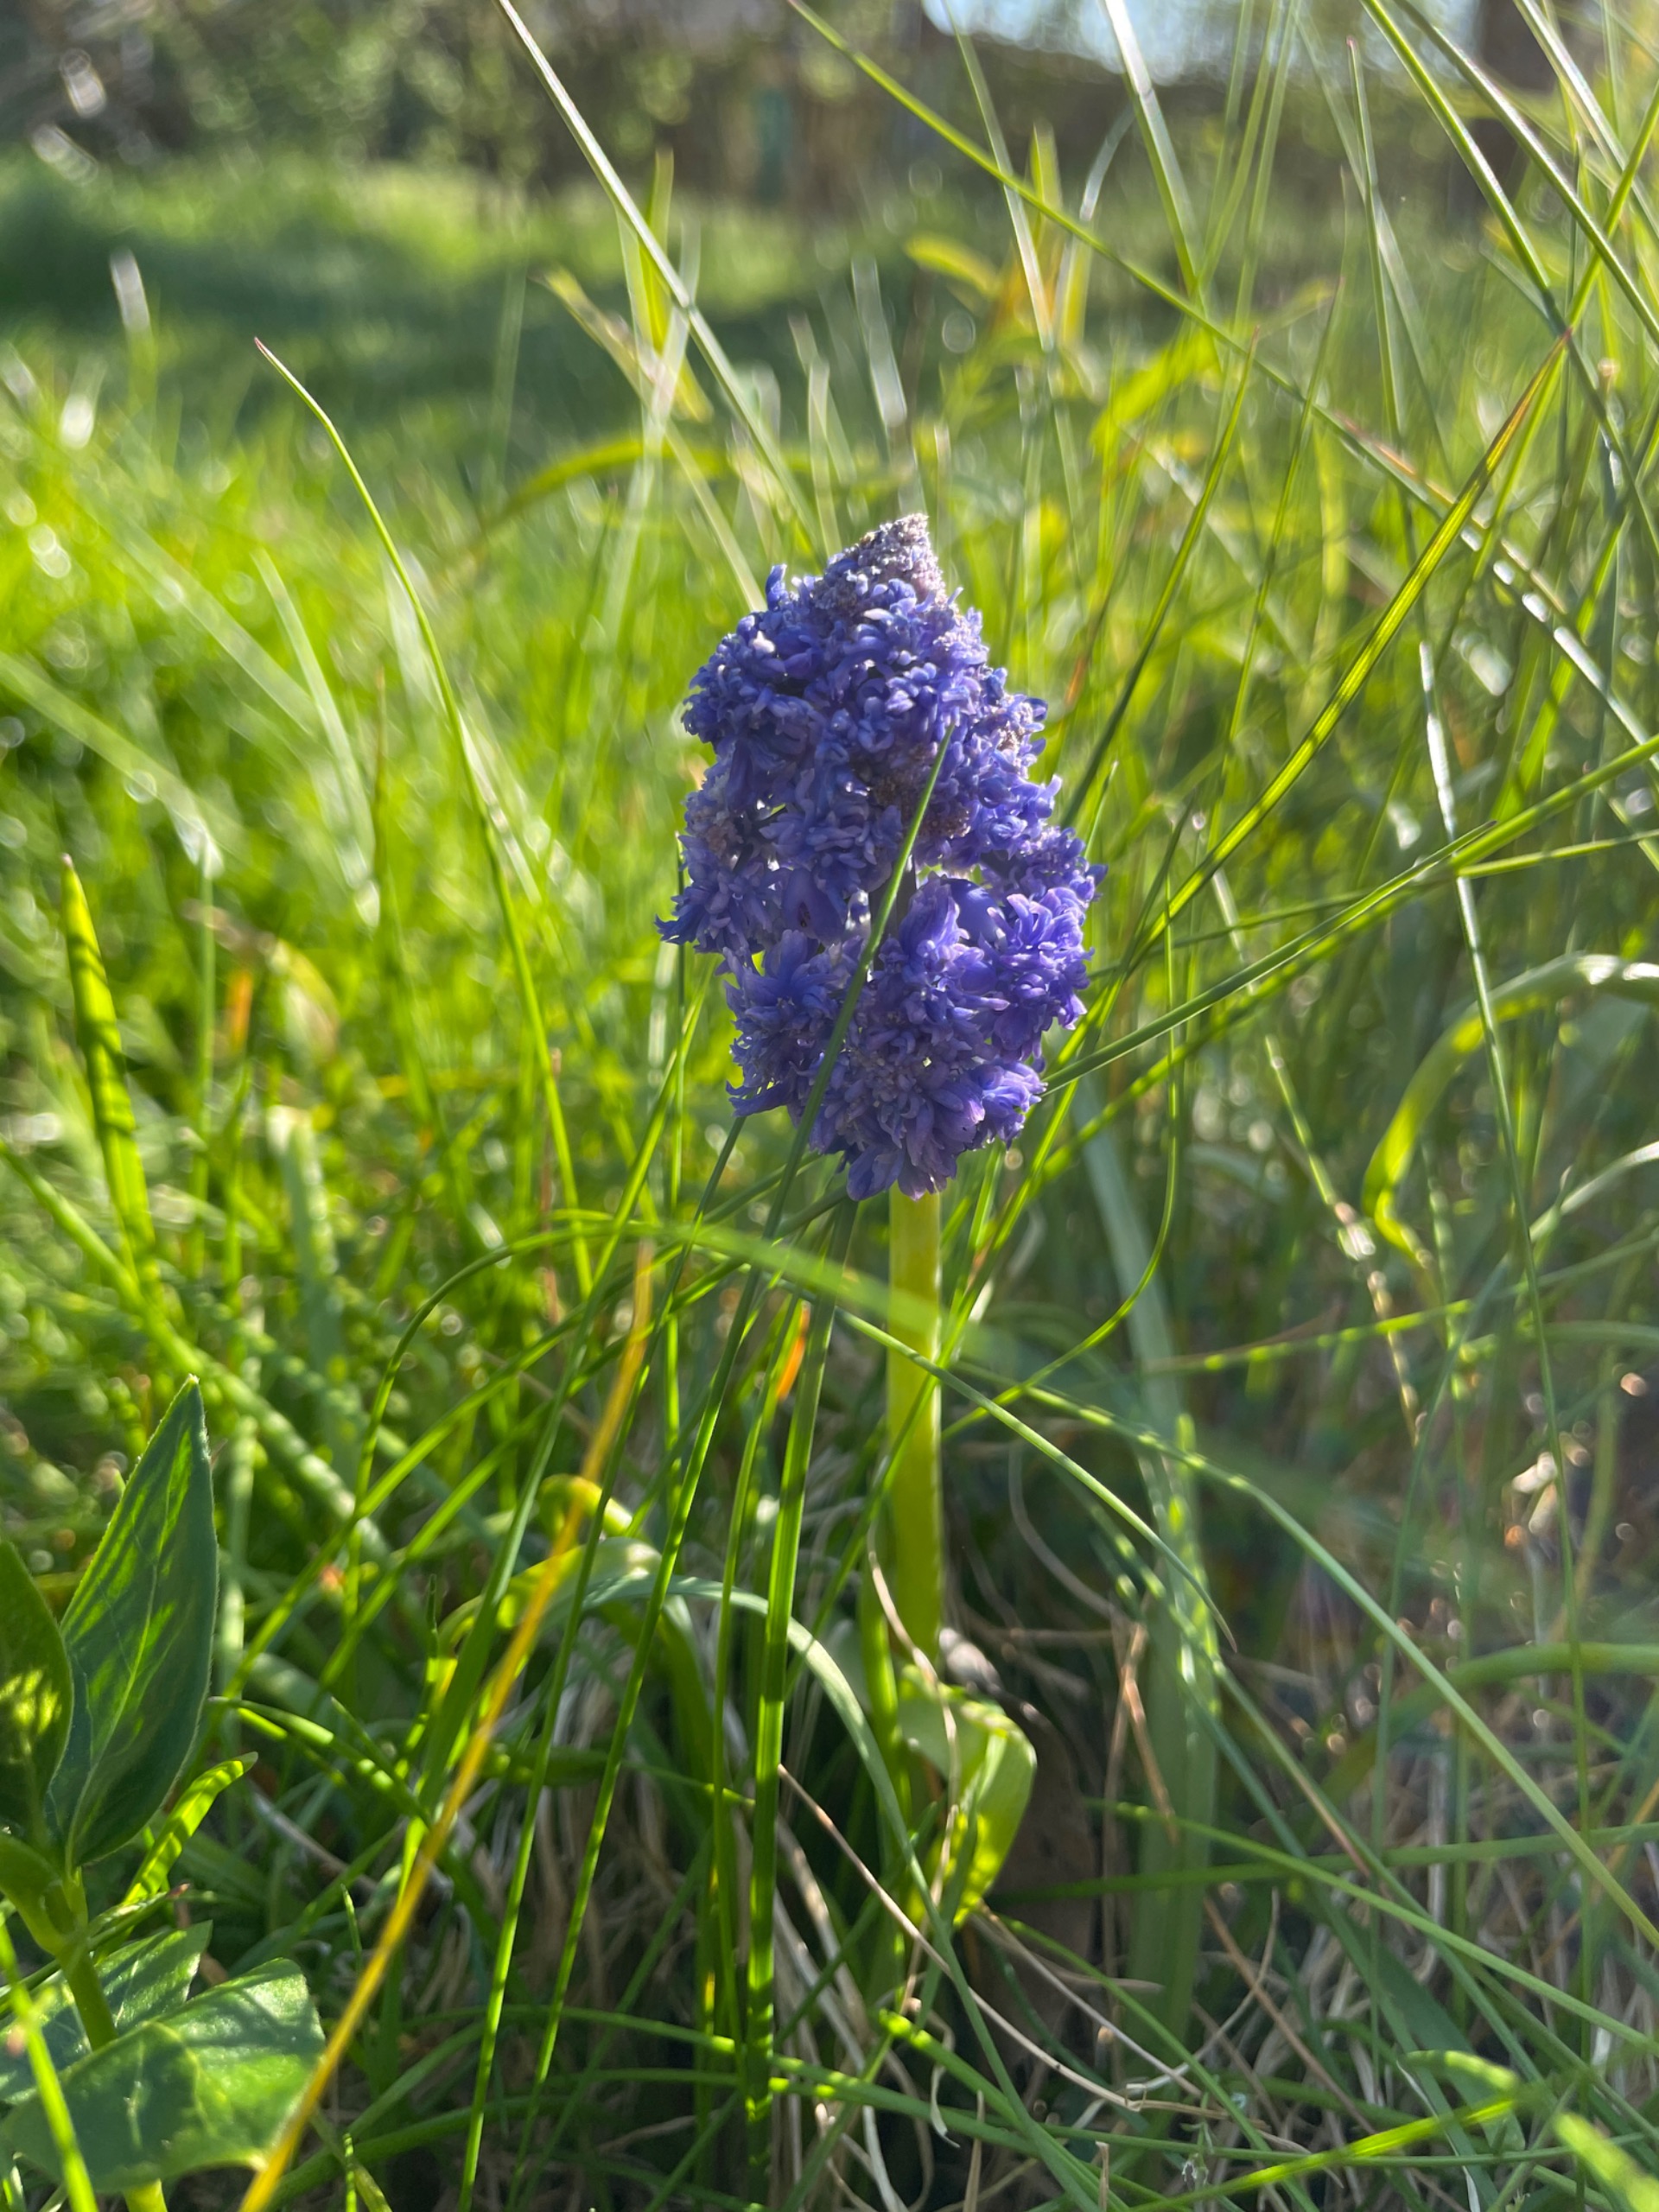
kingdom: Plantae
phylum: Tracheophyta
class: Liliopsida
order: Asparagales
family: Asparagaceae
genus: Hyacinthoides
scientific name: Hyacinthoides
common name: Skilla (Hyacinthoides-slægten)
